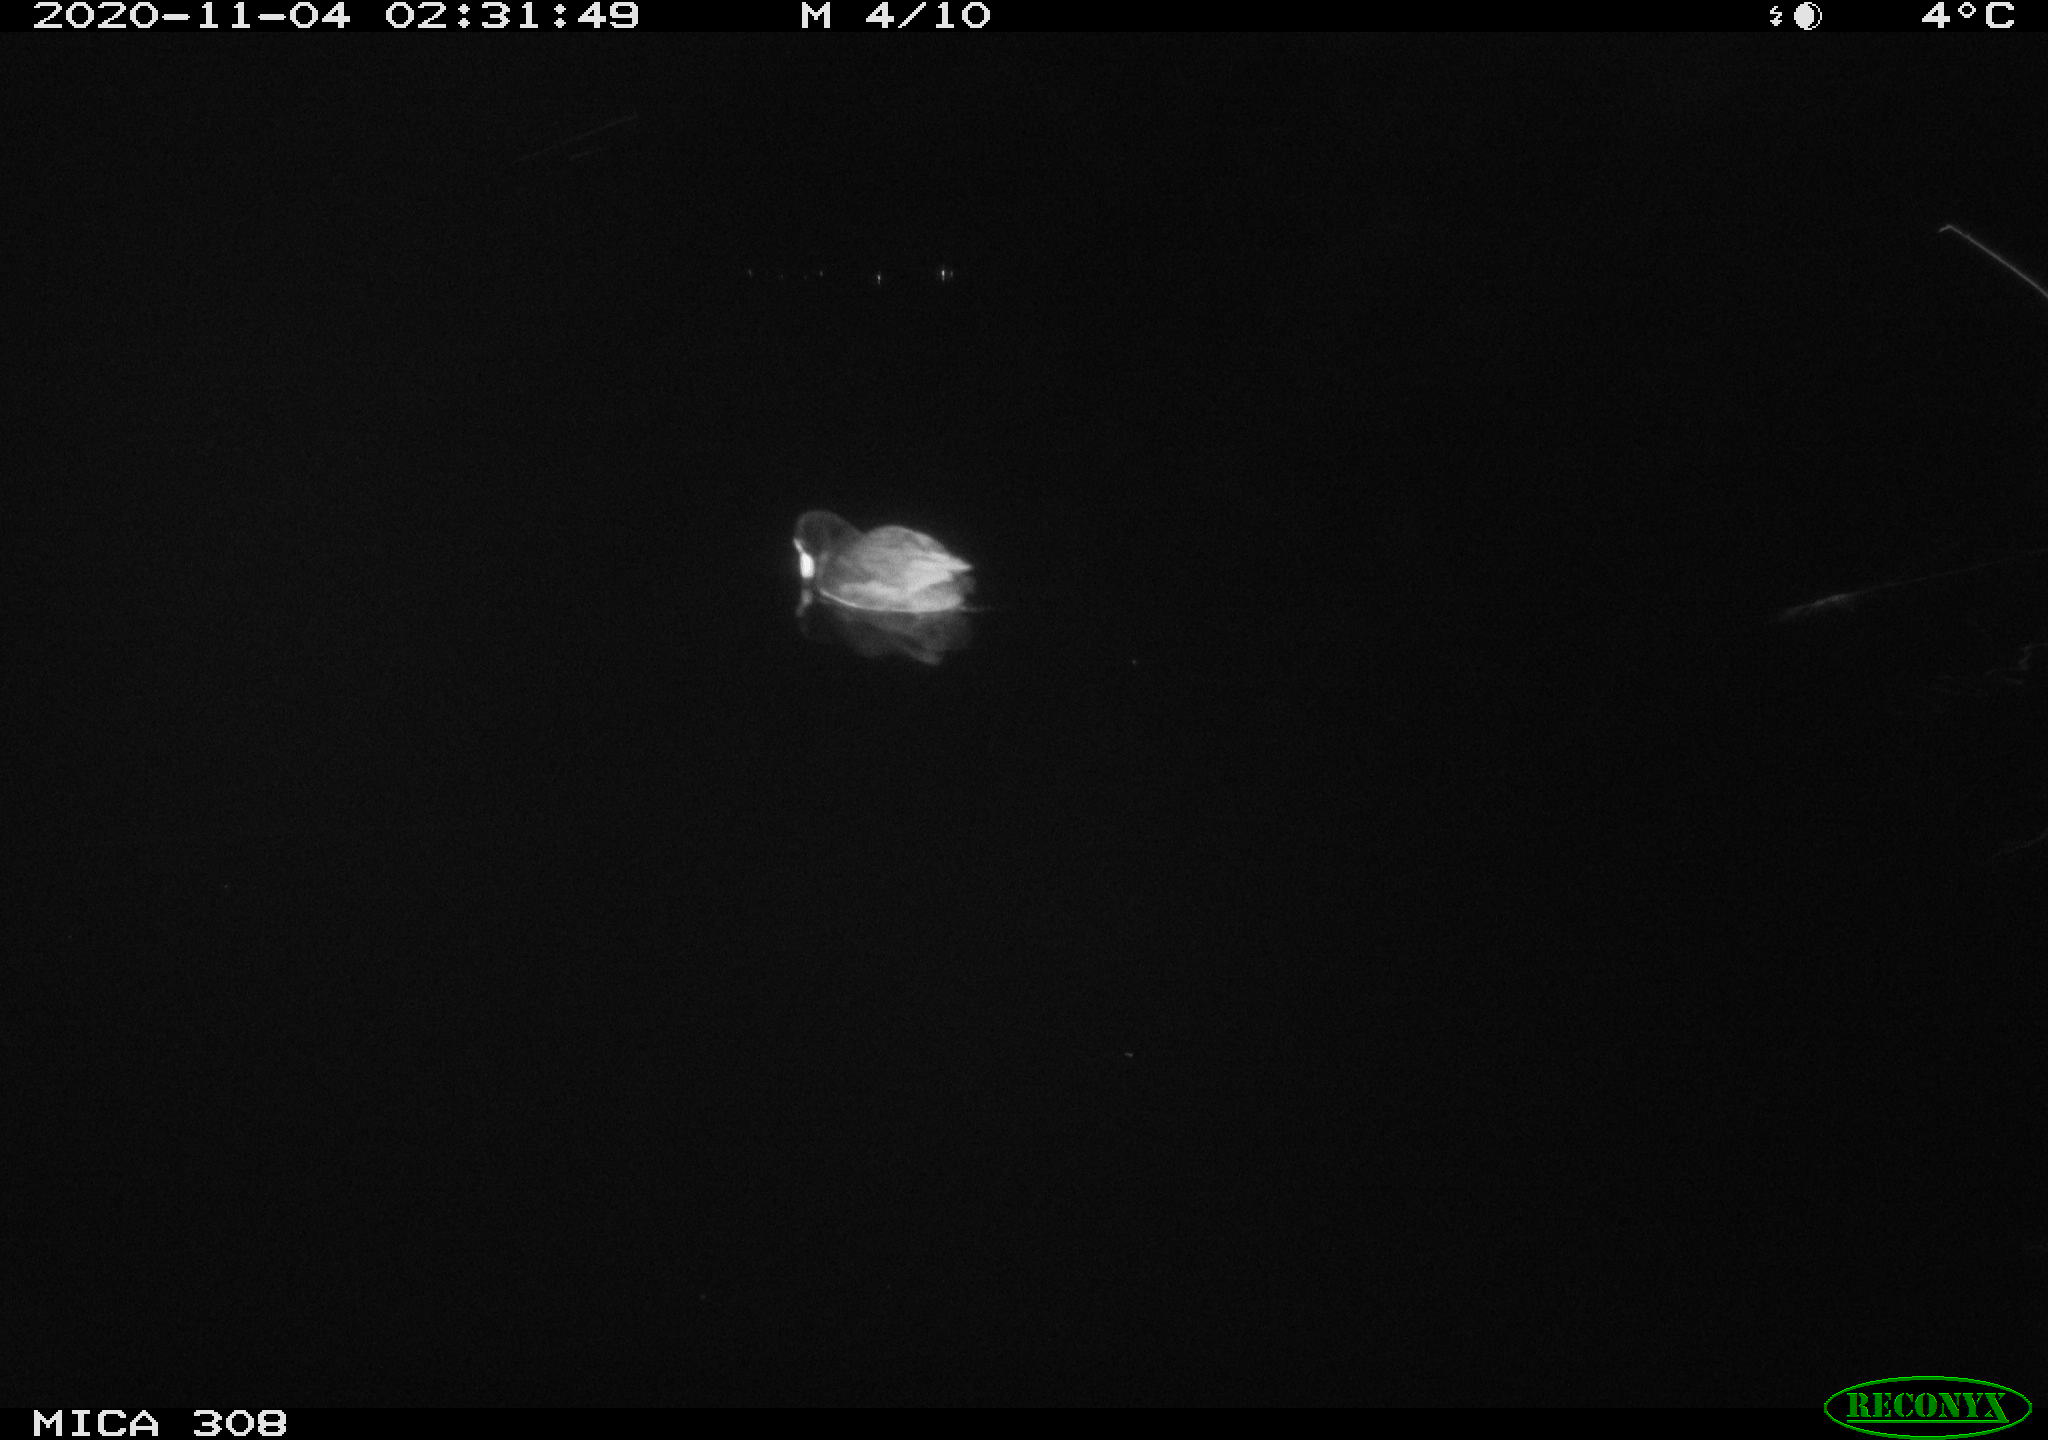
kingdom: Animalia
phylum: Chordata
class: Aves
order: Gruiformes
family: Rallidae
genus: Fulica
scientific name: Fulica atra
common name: Eurasian coot
